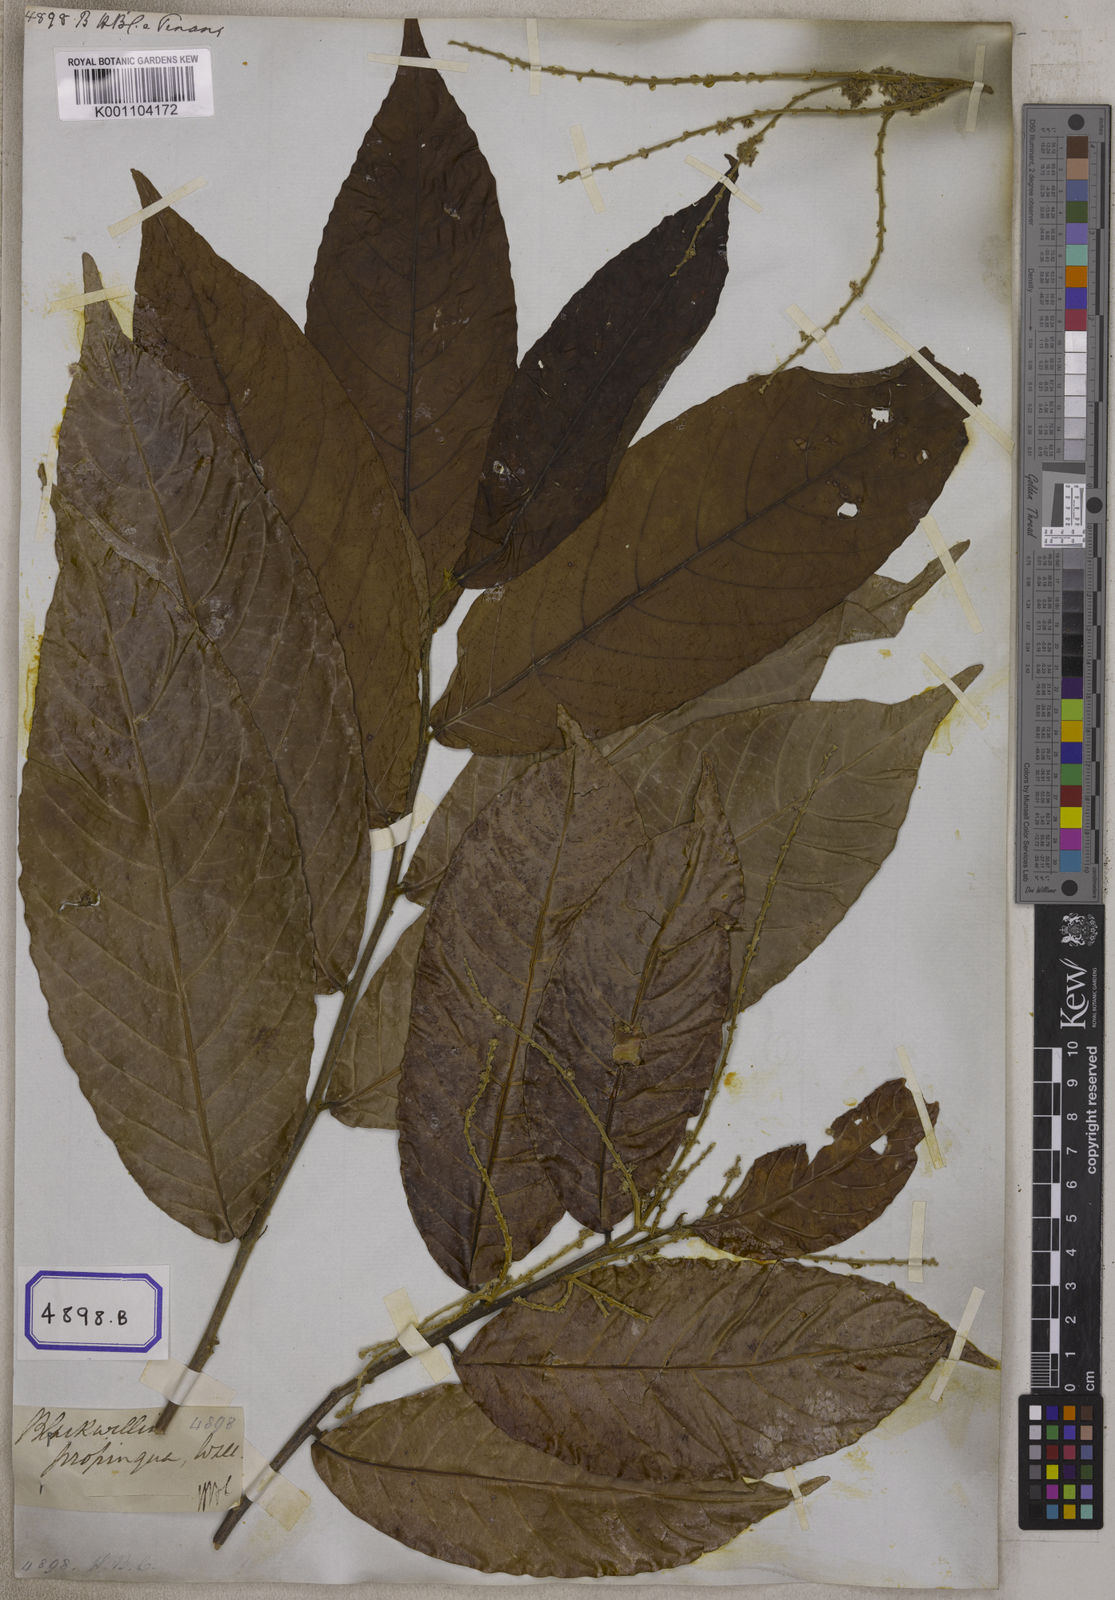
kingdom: Plantae
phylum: Tracheophyta
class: Magnoliopsida
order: Malpighiales
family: Salicaceae
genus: Homalium
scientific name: Homalium tomentosum
